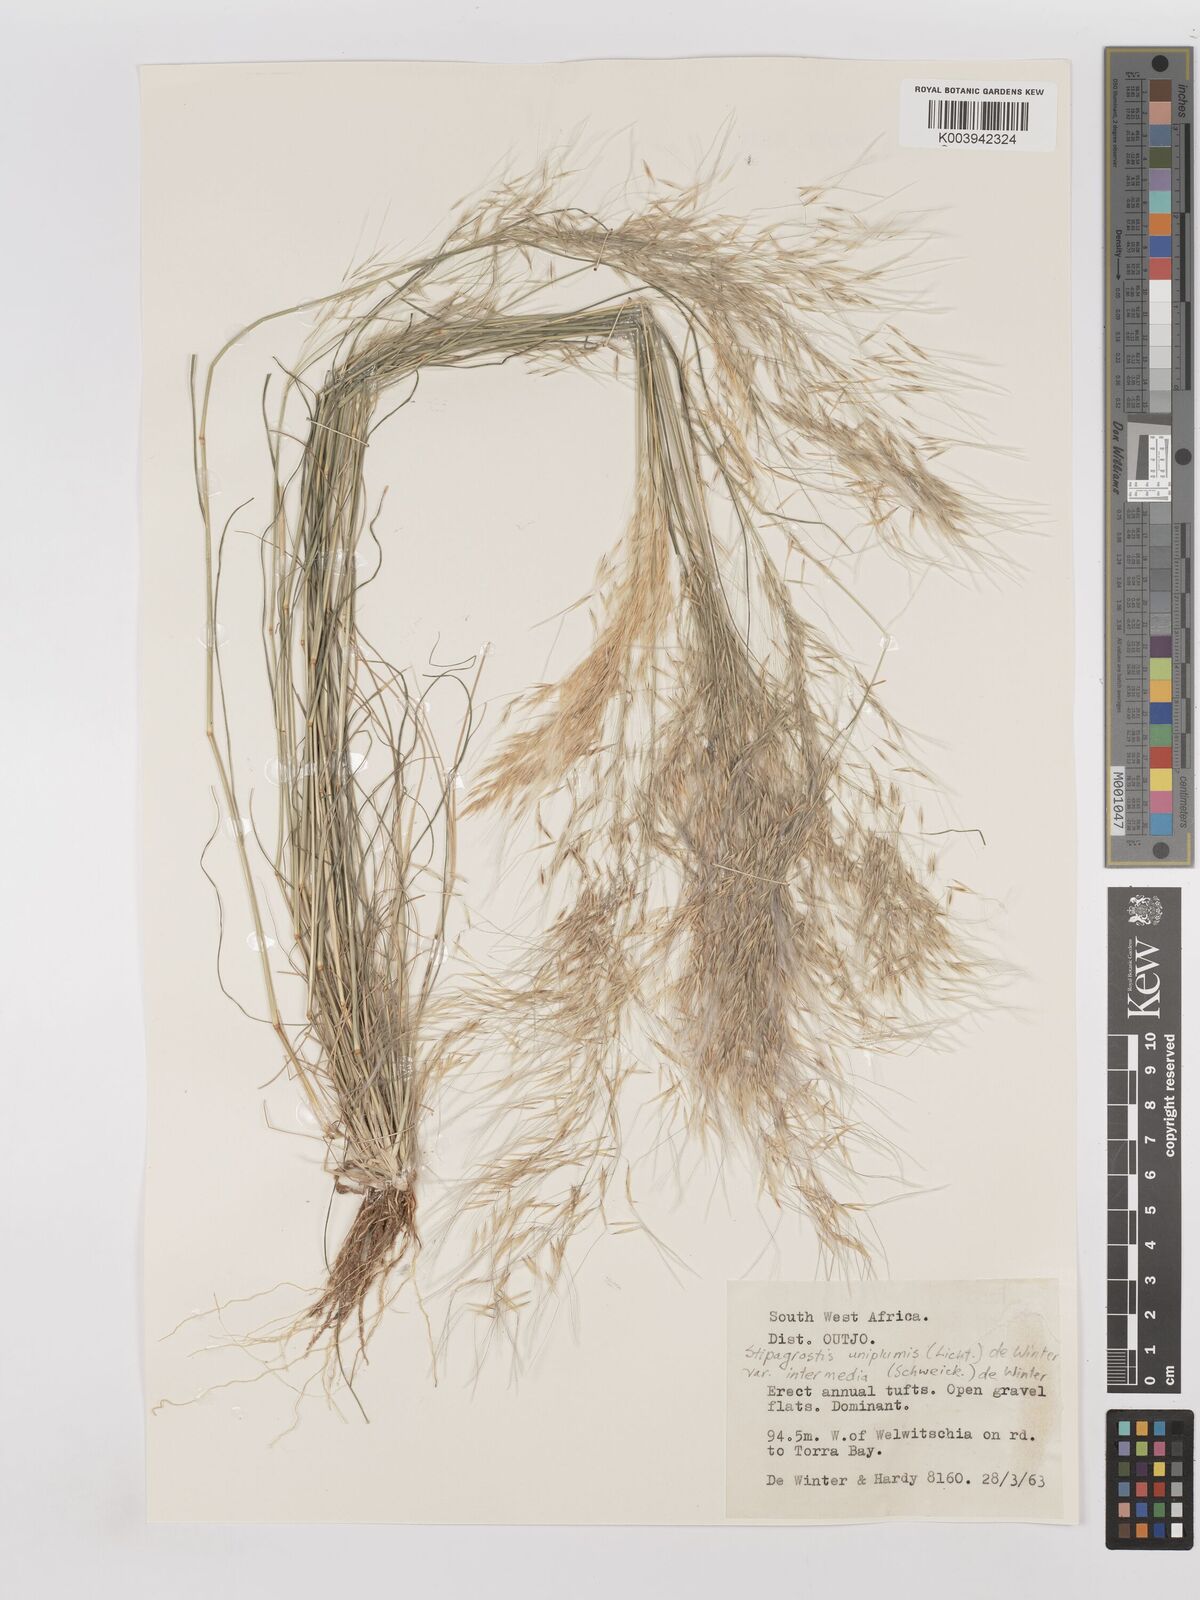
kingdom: Plantae
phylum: Tracheophyta
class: Liliopsida
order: Poales
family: Poaceae
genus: Stipagrostis
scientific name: Stipagrostis uniplumis
